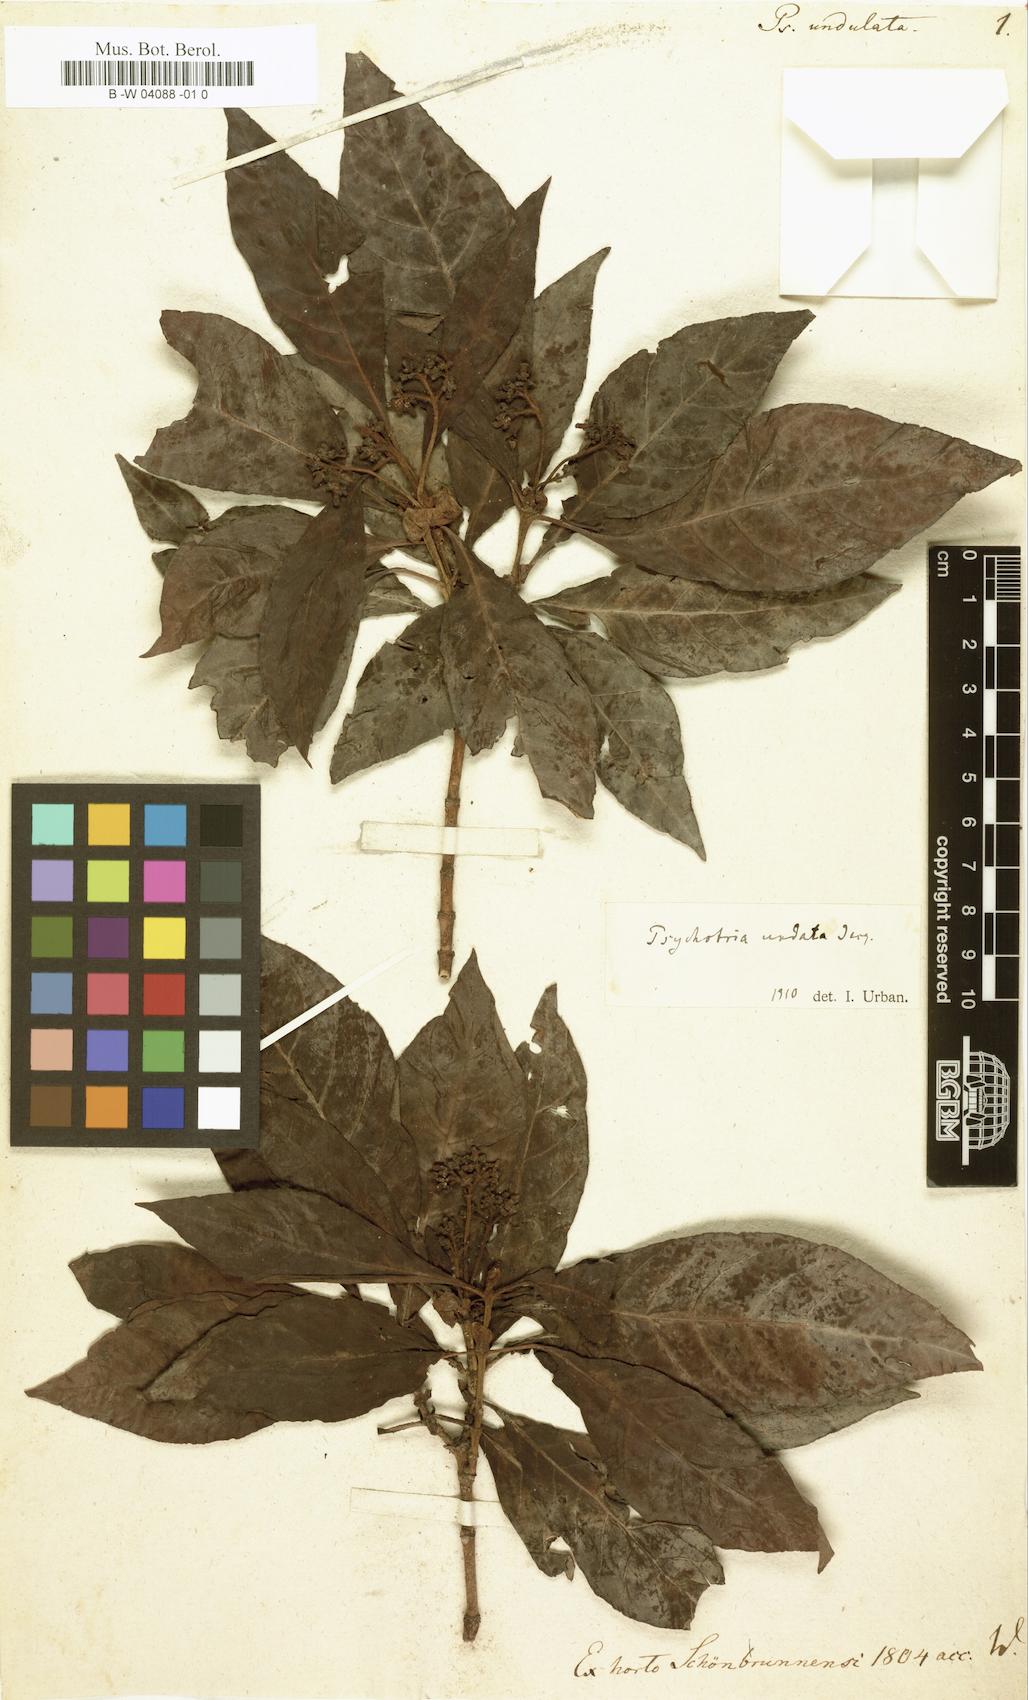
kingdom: Plantae
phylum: Tracheophyta
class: Magnoliopsida
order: Gentianales
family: Rubiaceae
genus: Psychotria
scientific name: Psychotria nervosa
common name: Bastard cankerberry
